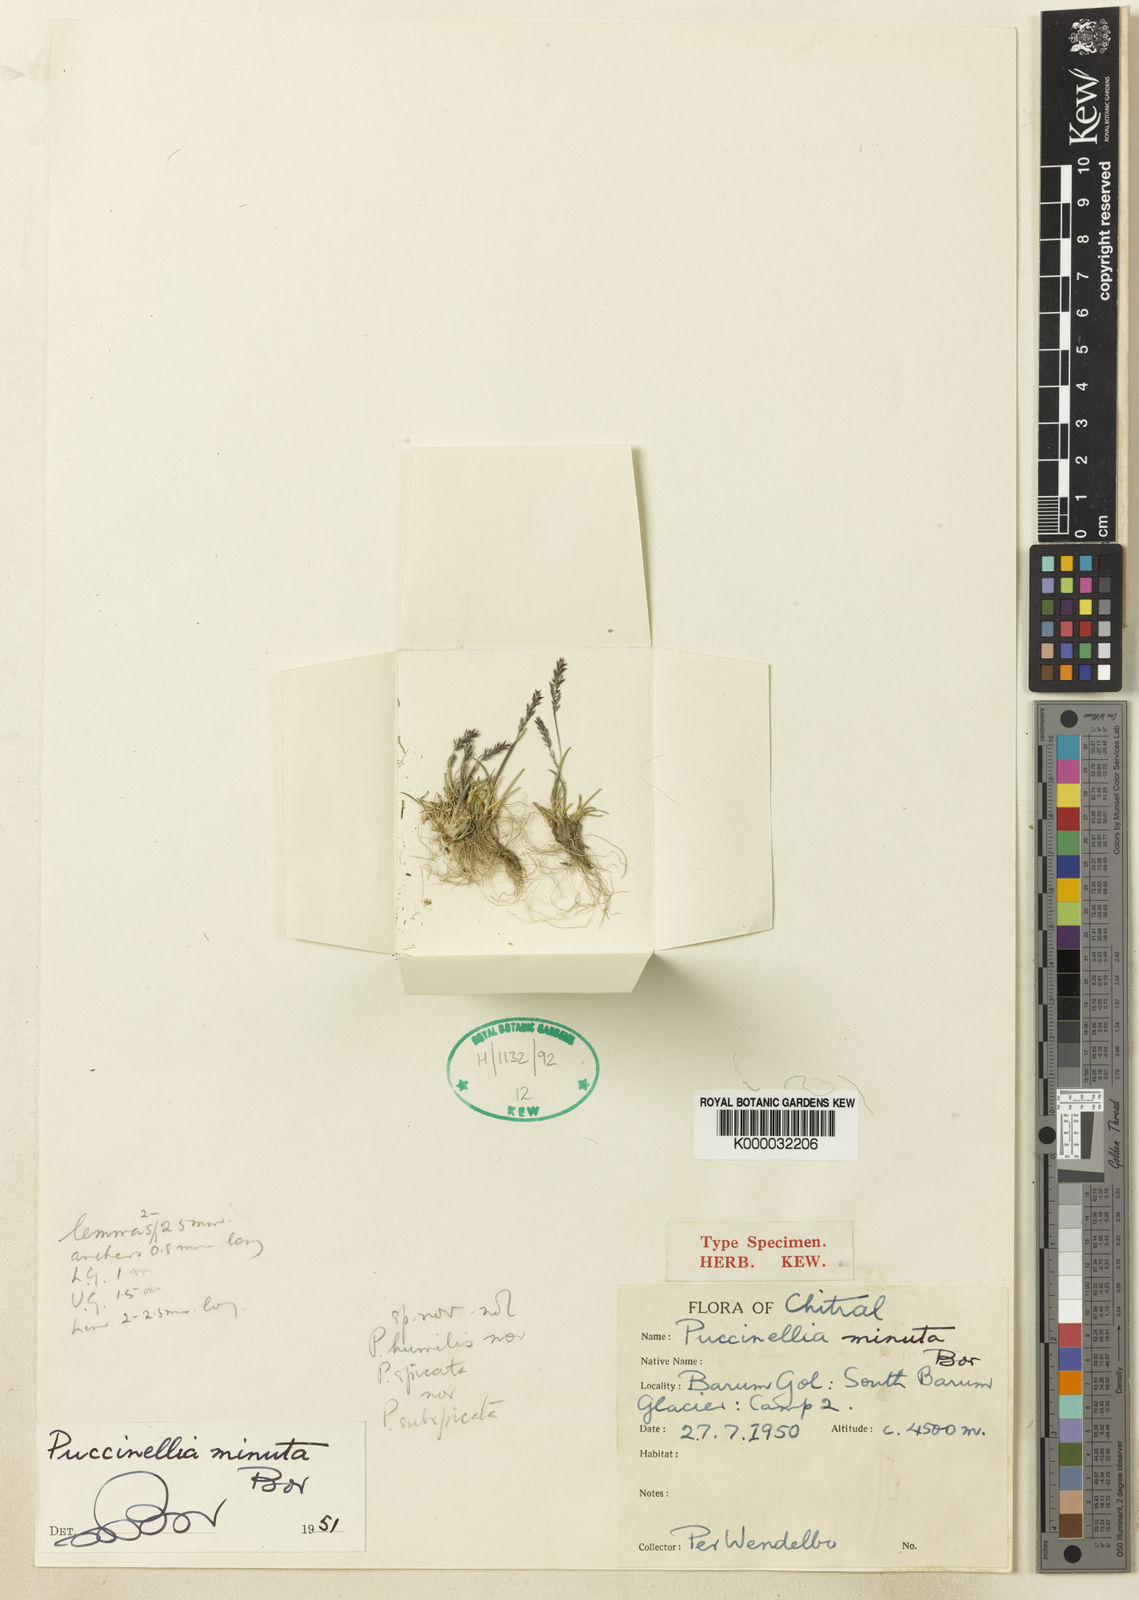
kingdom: Plantae
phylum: Tracheophyta
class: Liliopsida
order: Poales
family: Poaceae
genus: Puccinellia
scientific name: Puccinellia minuta
